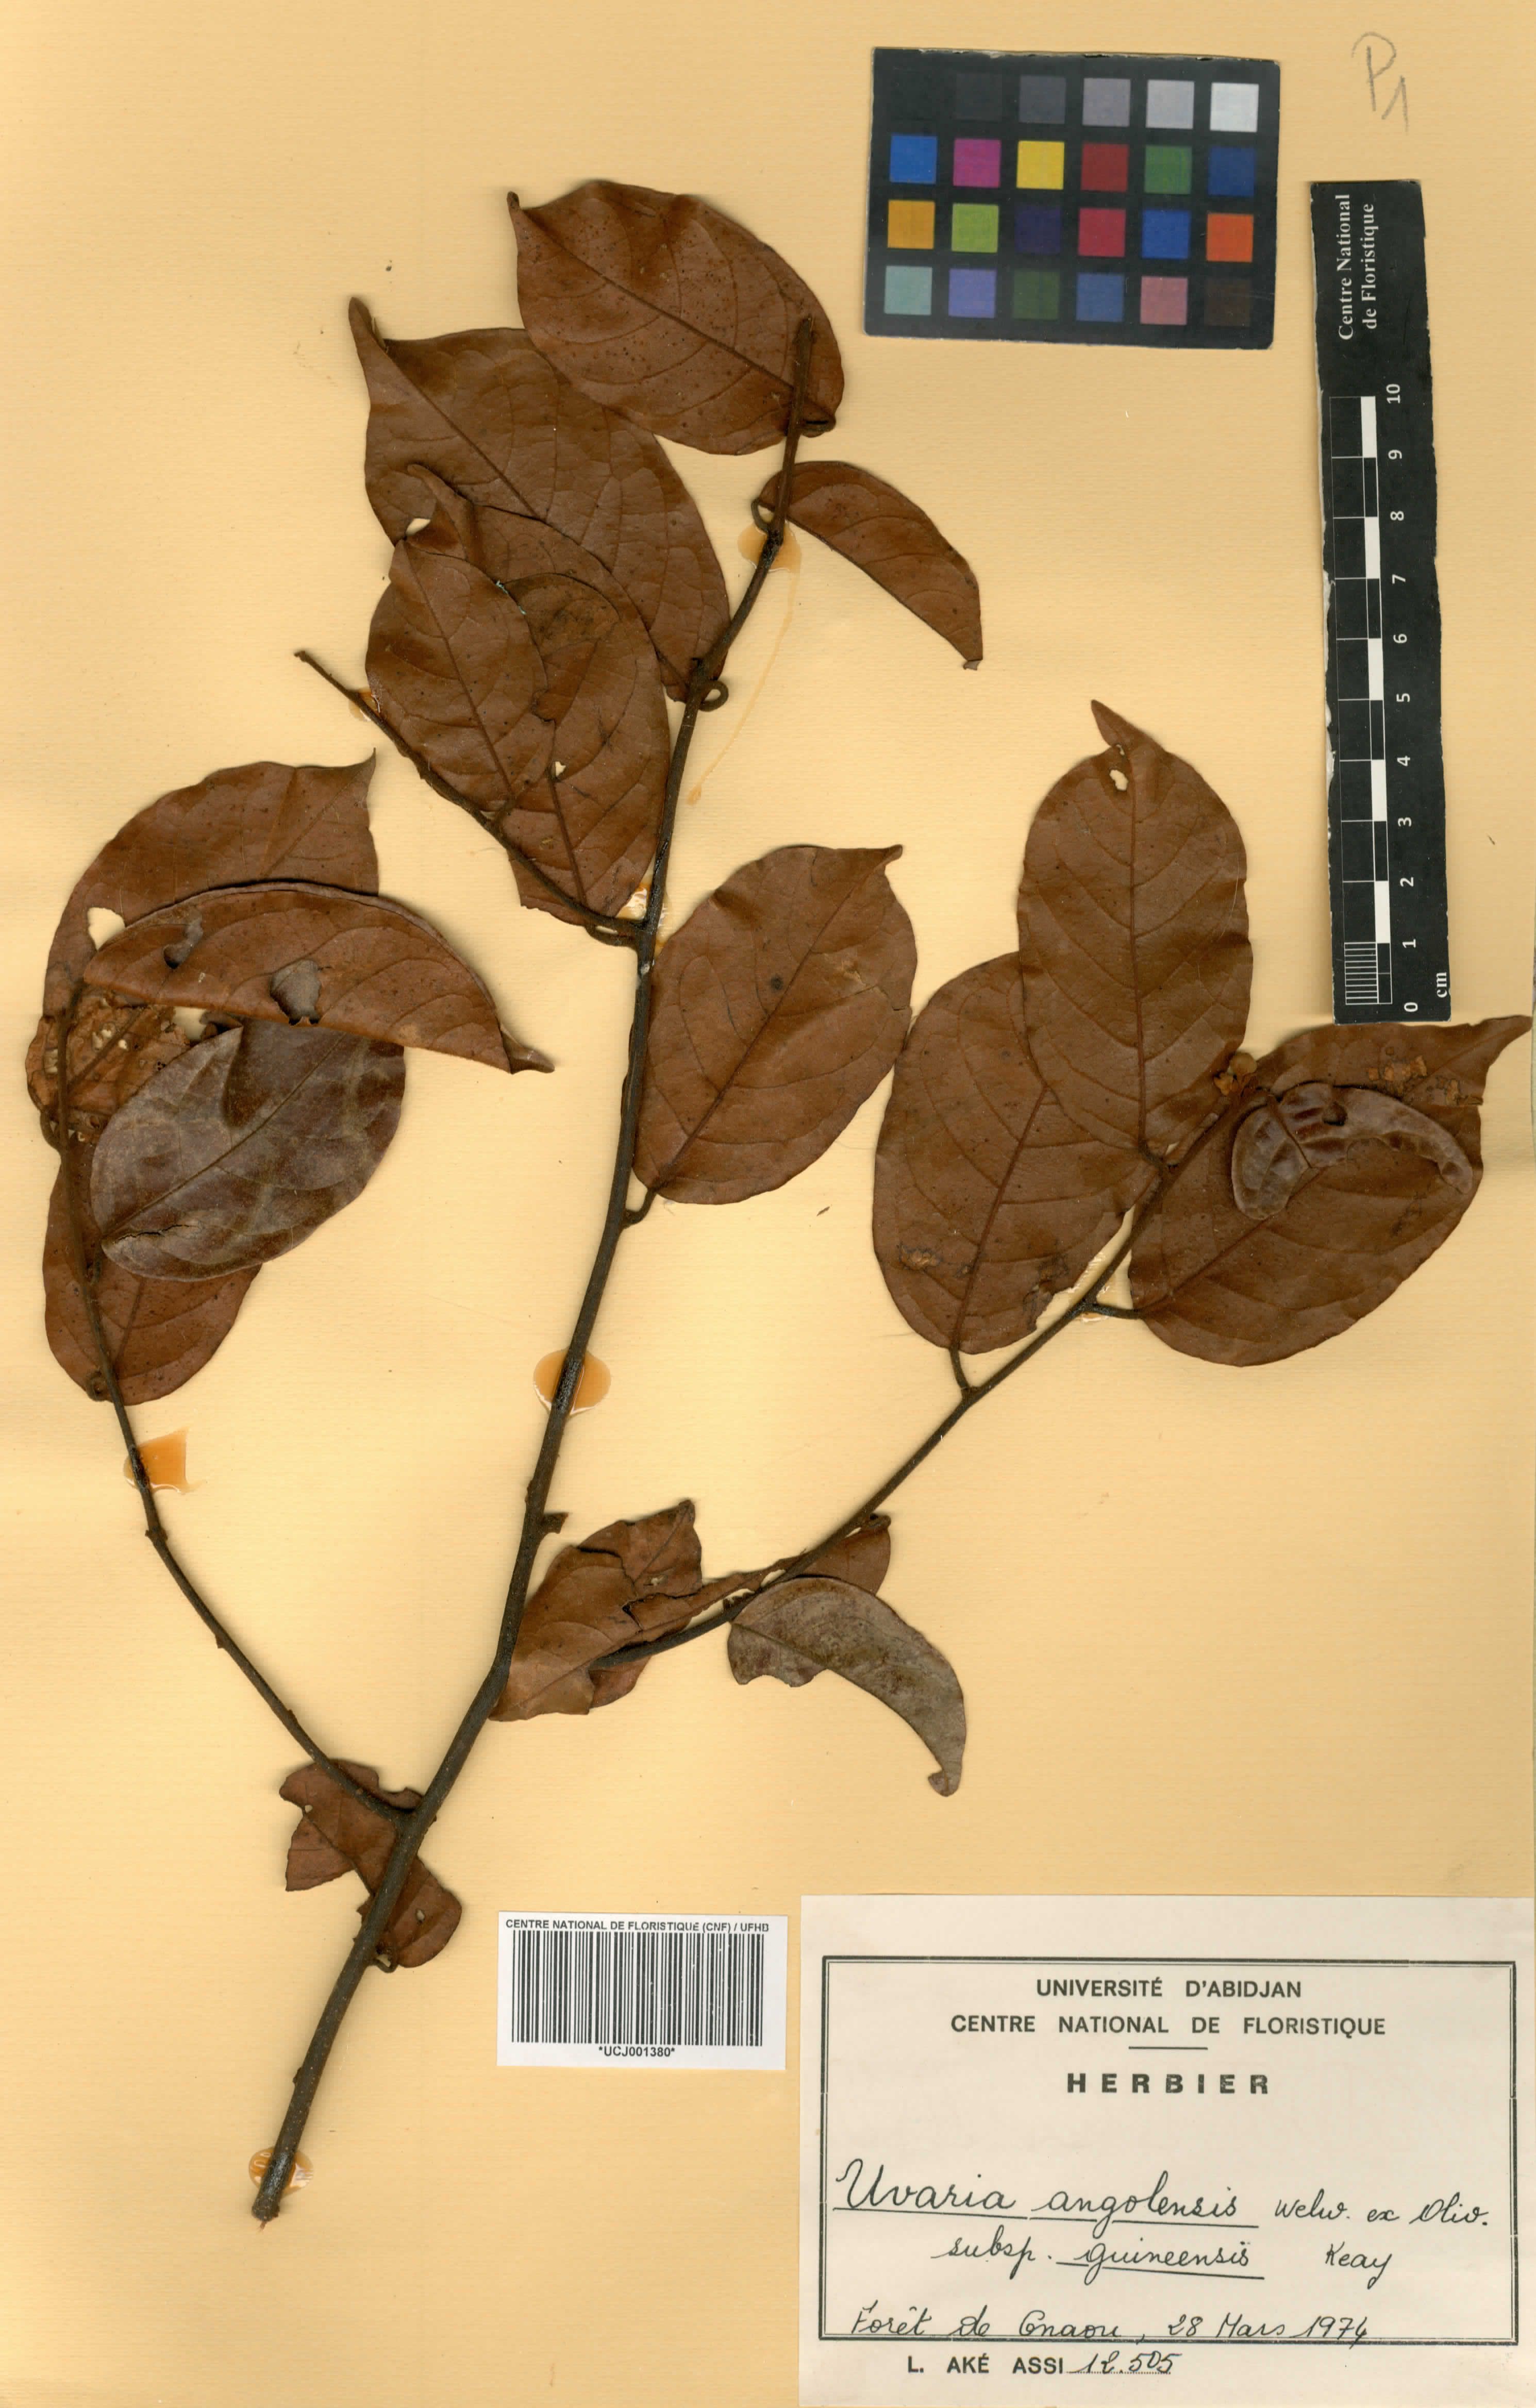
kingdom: Plantae
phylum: Tracheophyta
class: Magnoliopsida
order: Magnoliales
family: Annonaceae
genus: Uvaria
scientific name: Uvaria angolensis
